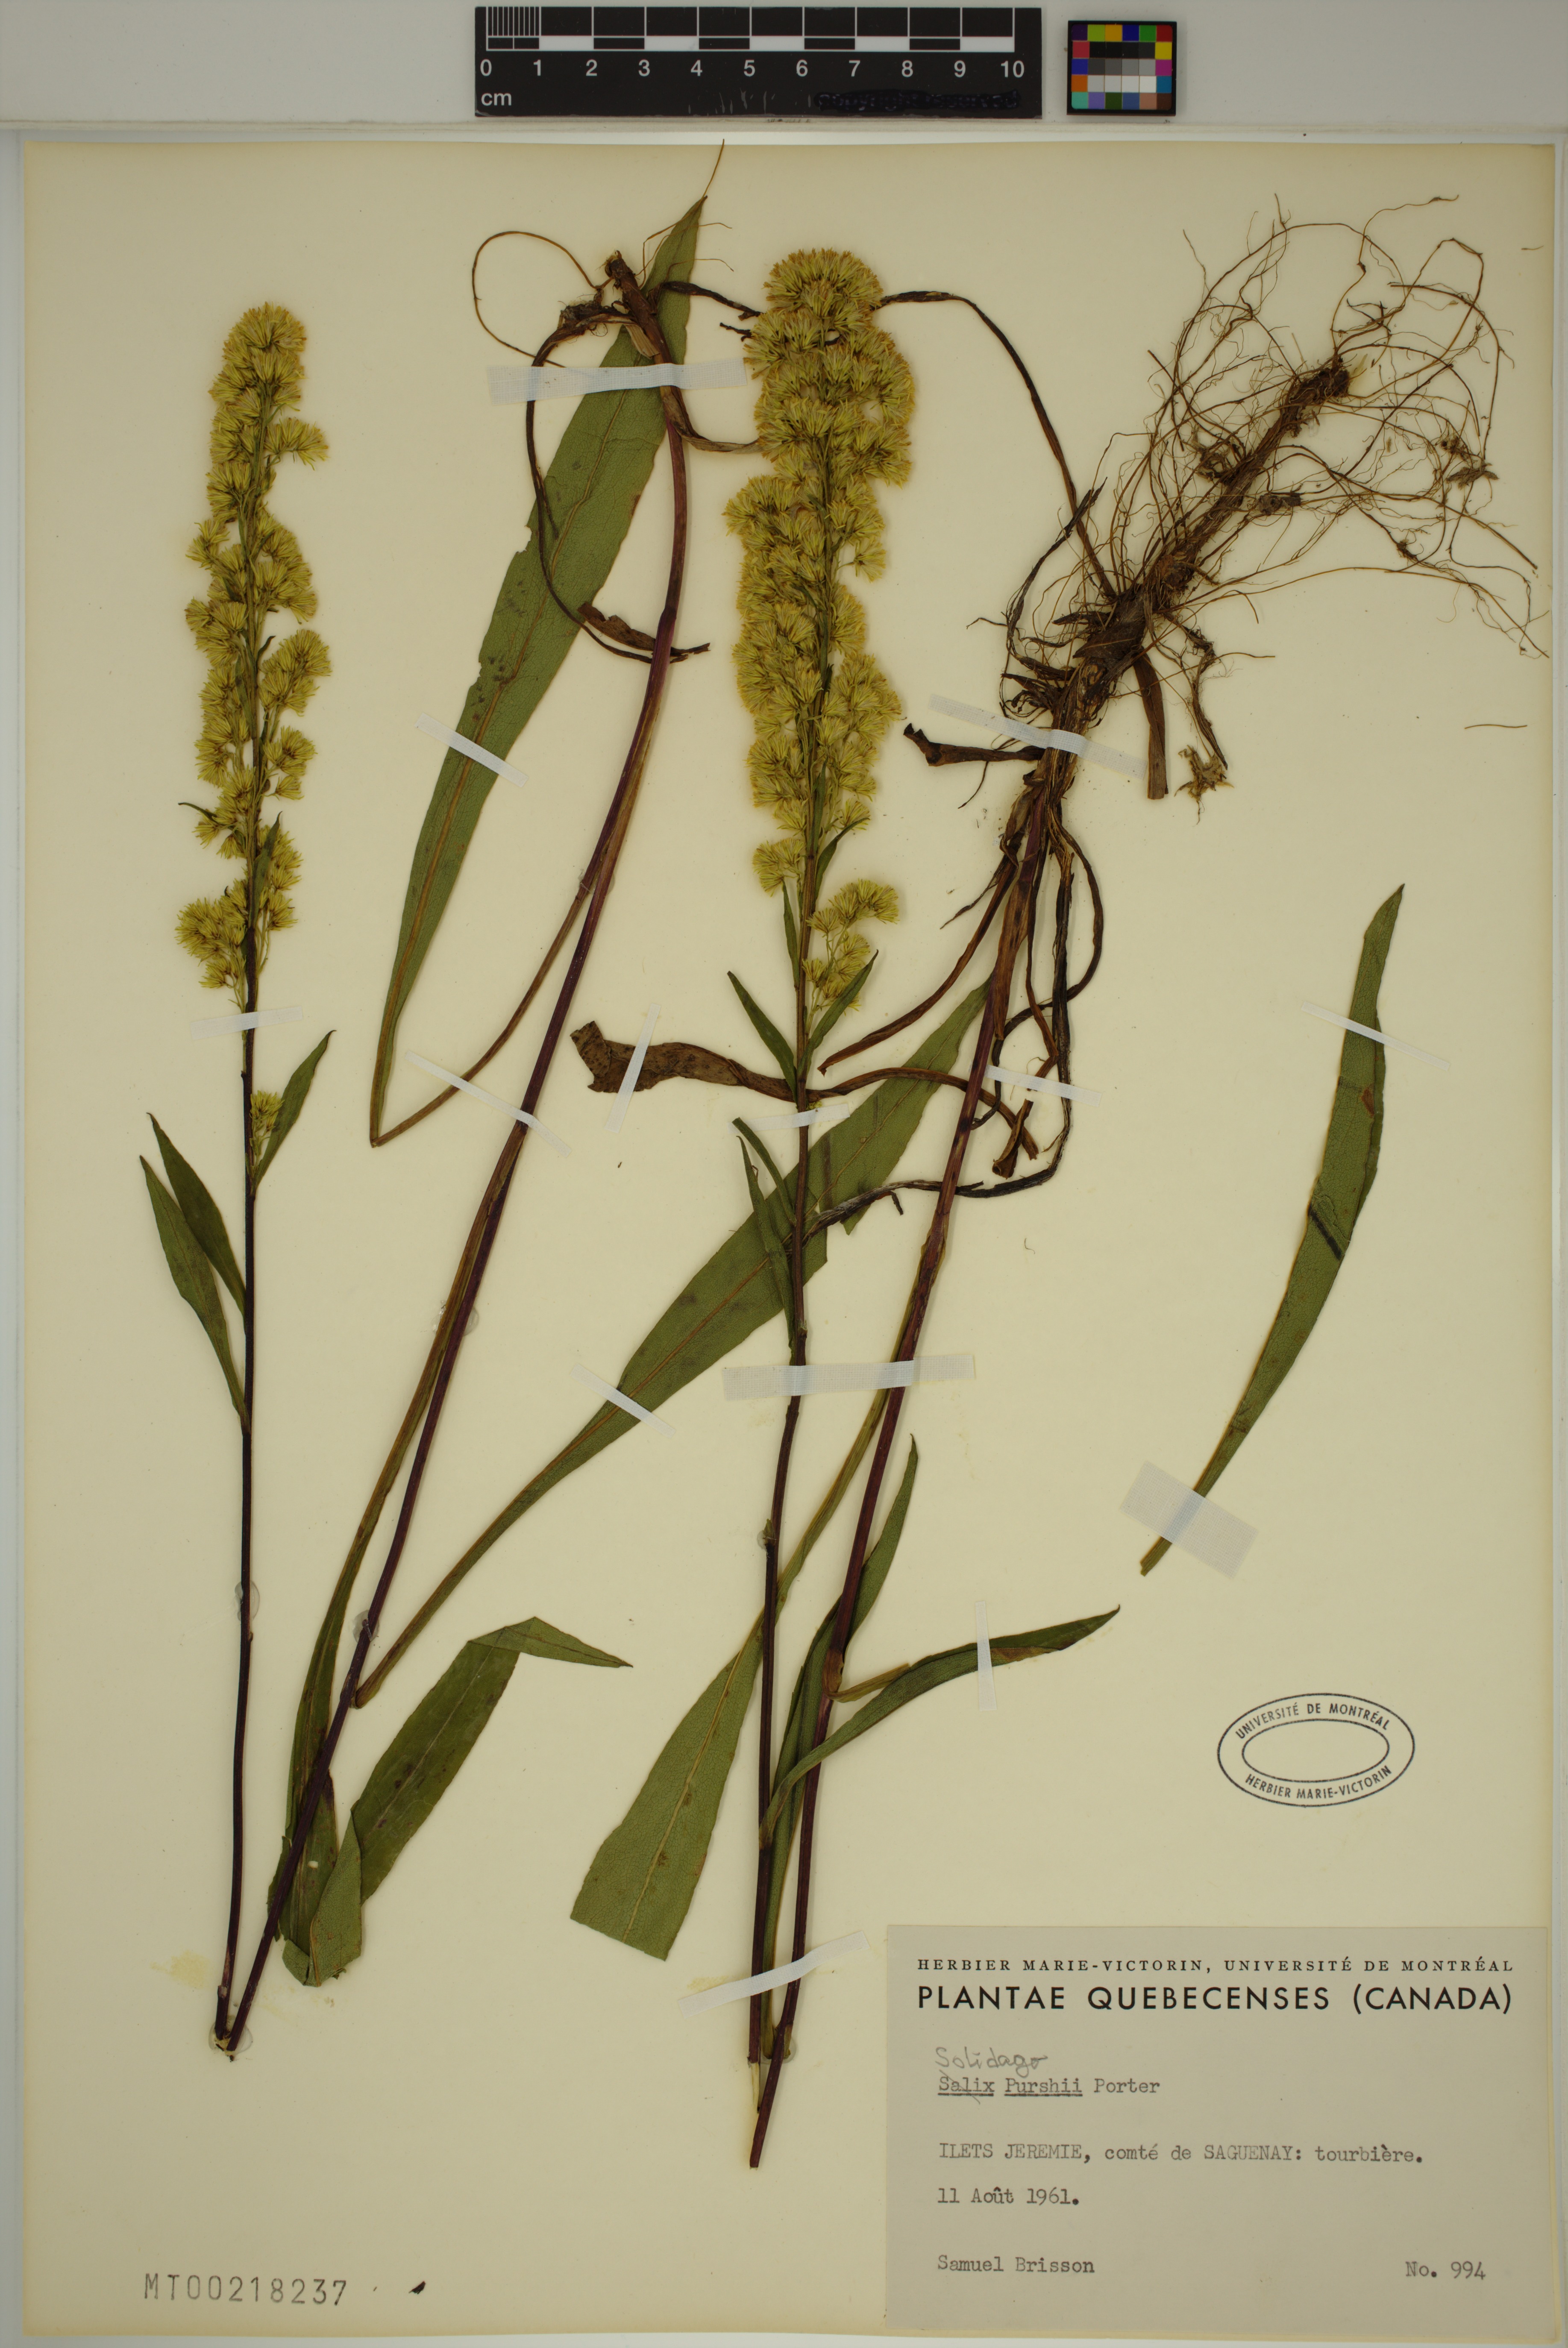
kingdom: Plantae
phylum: Tracheophyta
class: Magnoliopsida
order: Asterales
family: Asteraceae
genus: Solidago
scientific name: Solidago uliginosa
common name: Bog goldenrod
